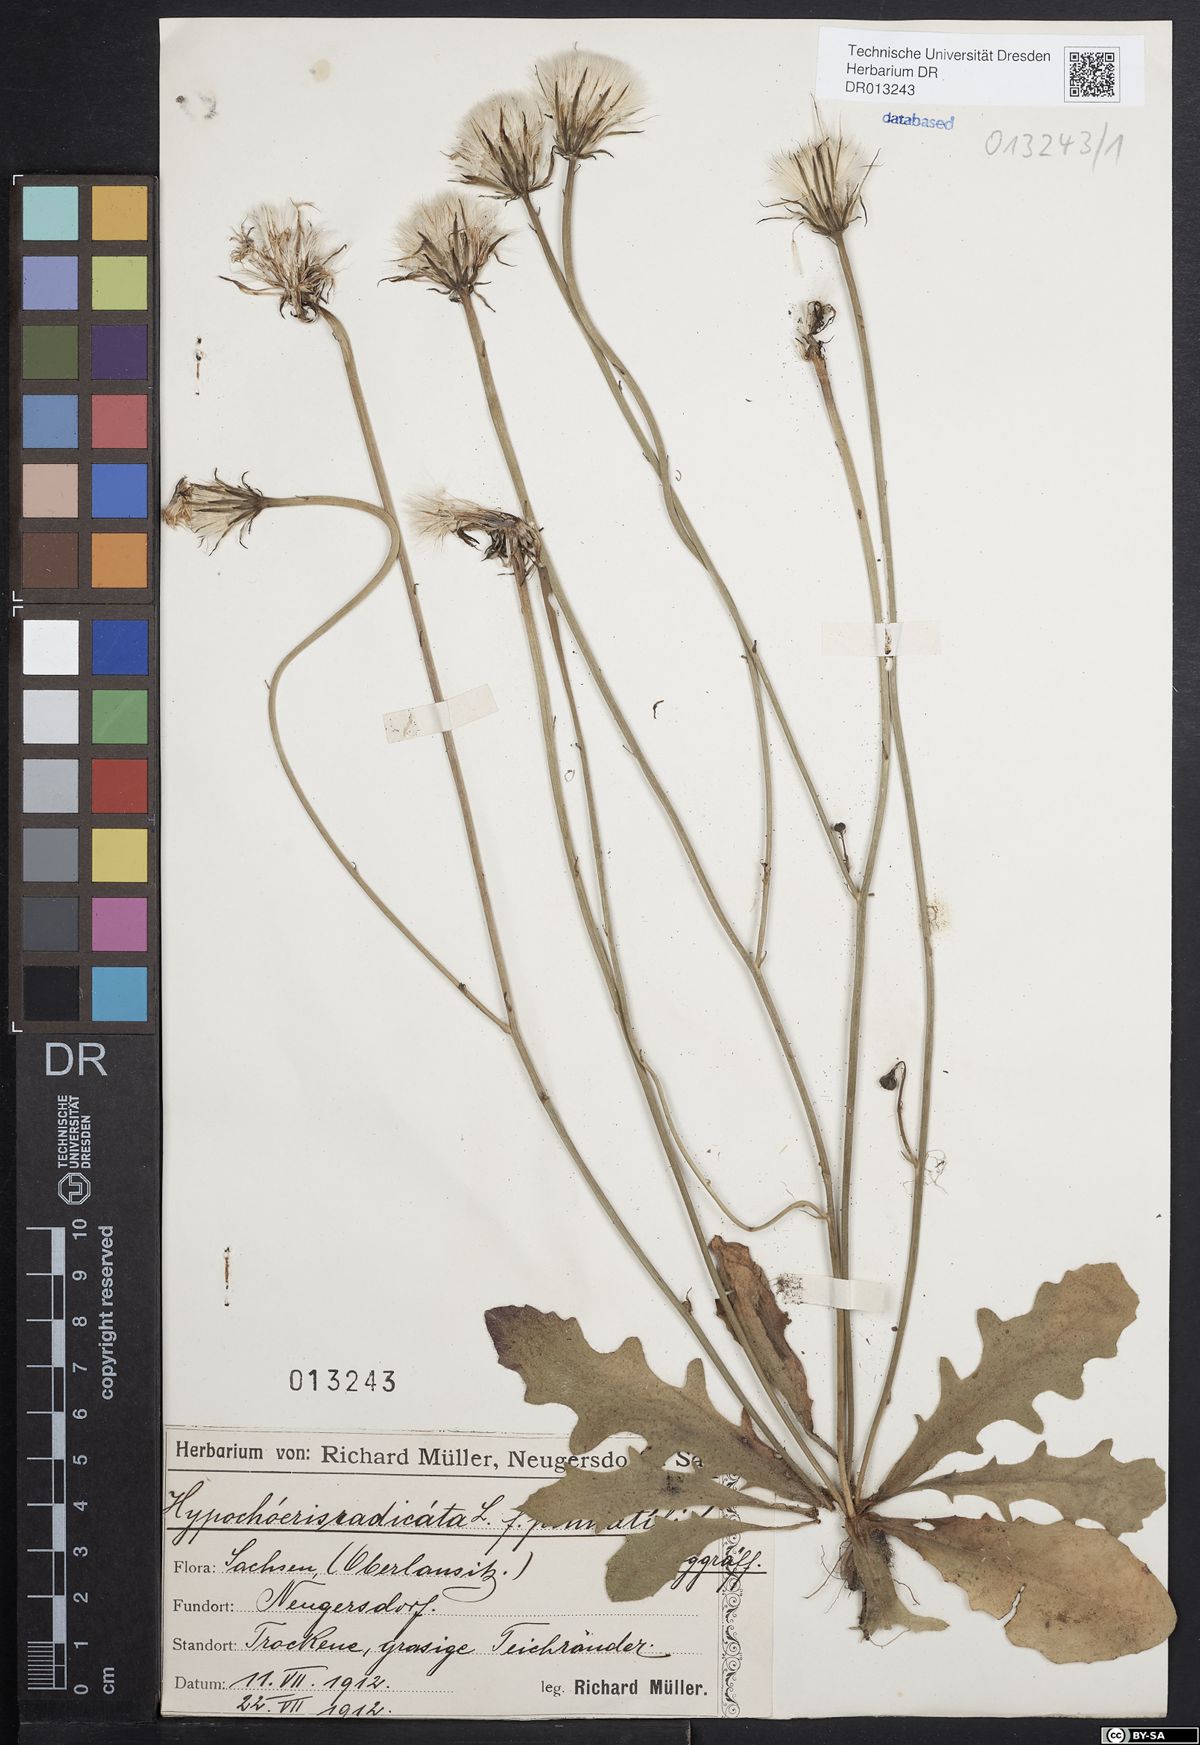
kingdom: Plantae
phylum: Tracheophyta
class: Magnoliopsida
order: Asterales
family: Asteraceae
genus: Hypochaeris
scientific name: Hypochaeris radicata
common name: Flatweed
